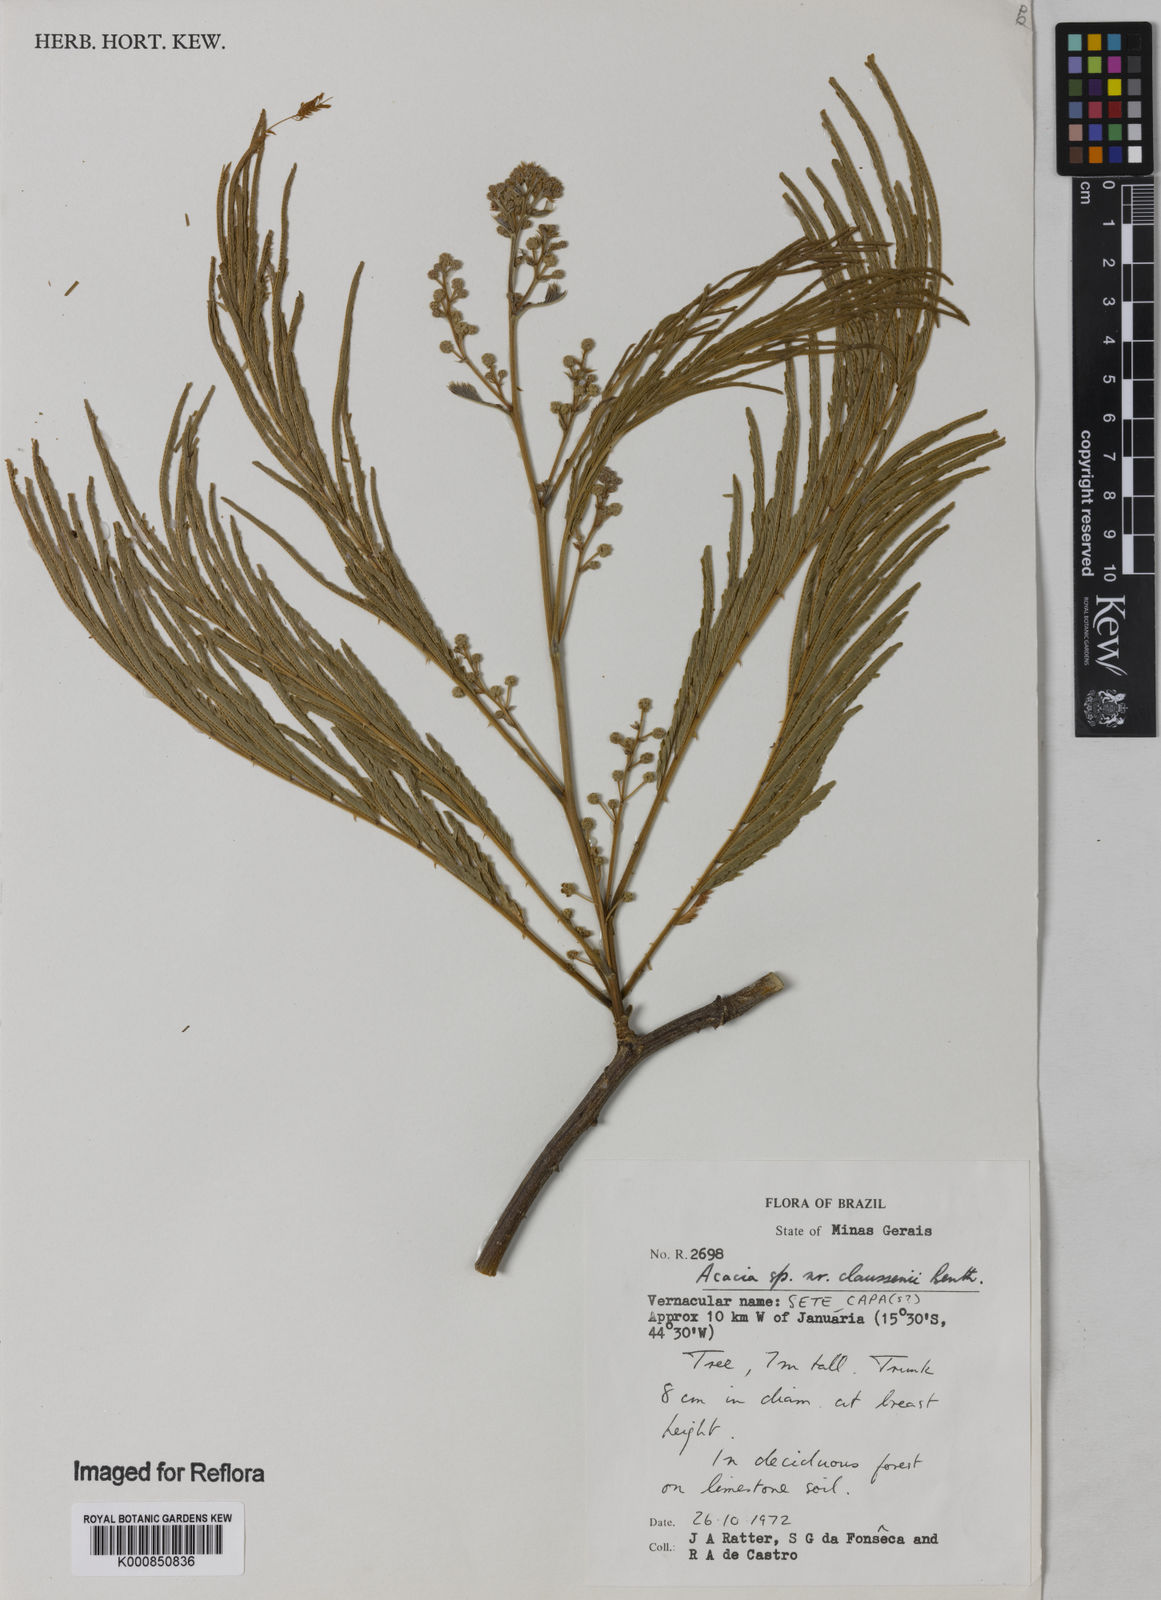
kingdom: Plantae
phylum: Tracheophyta
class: Magnoliopsida
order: Fabales
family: Fabaceae
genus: Senegalia
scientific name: Senegalia tenuifolia
